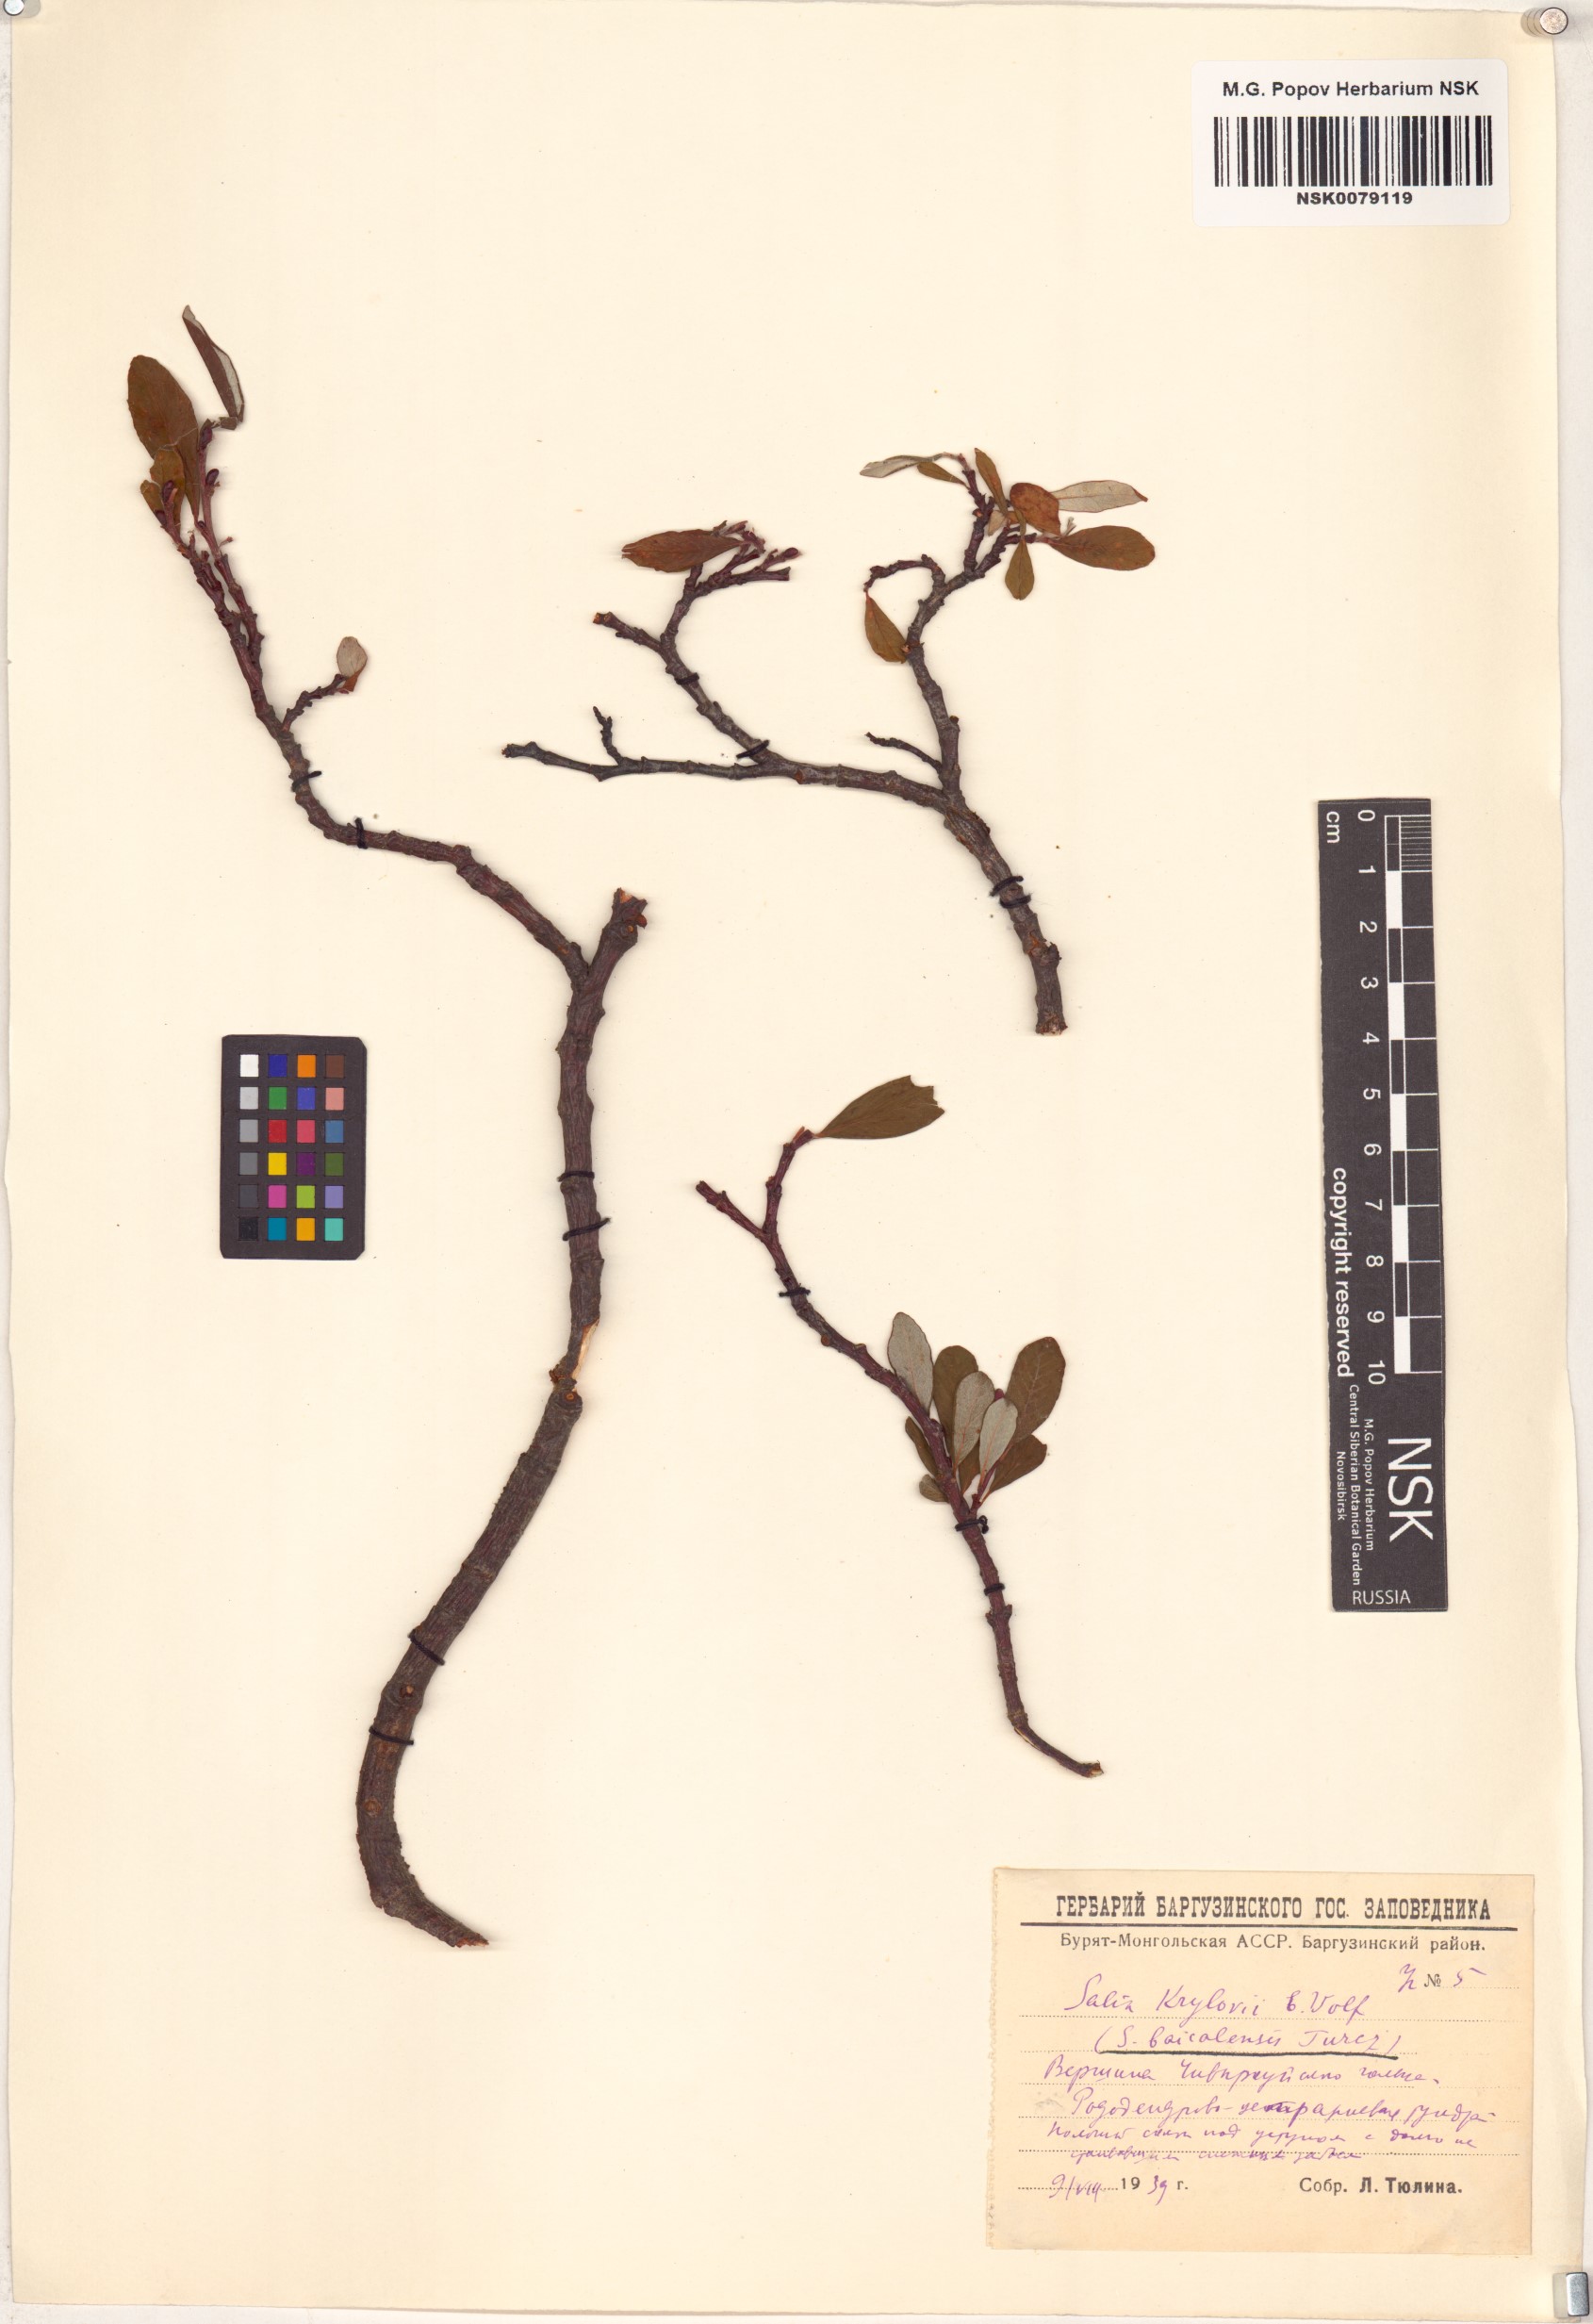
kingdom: Plantae
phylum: Tracheophyta
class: Magnoliopsida
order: Malpighiales
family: Salicaceae
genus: Salix
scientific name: Salix krylovii
